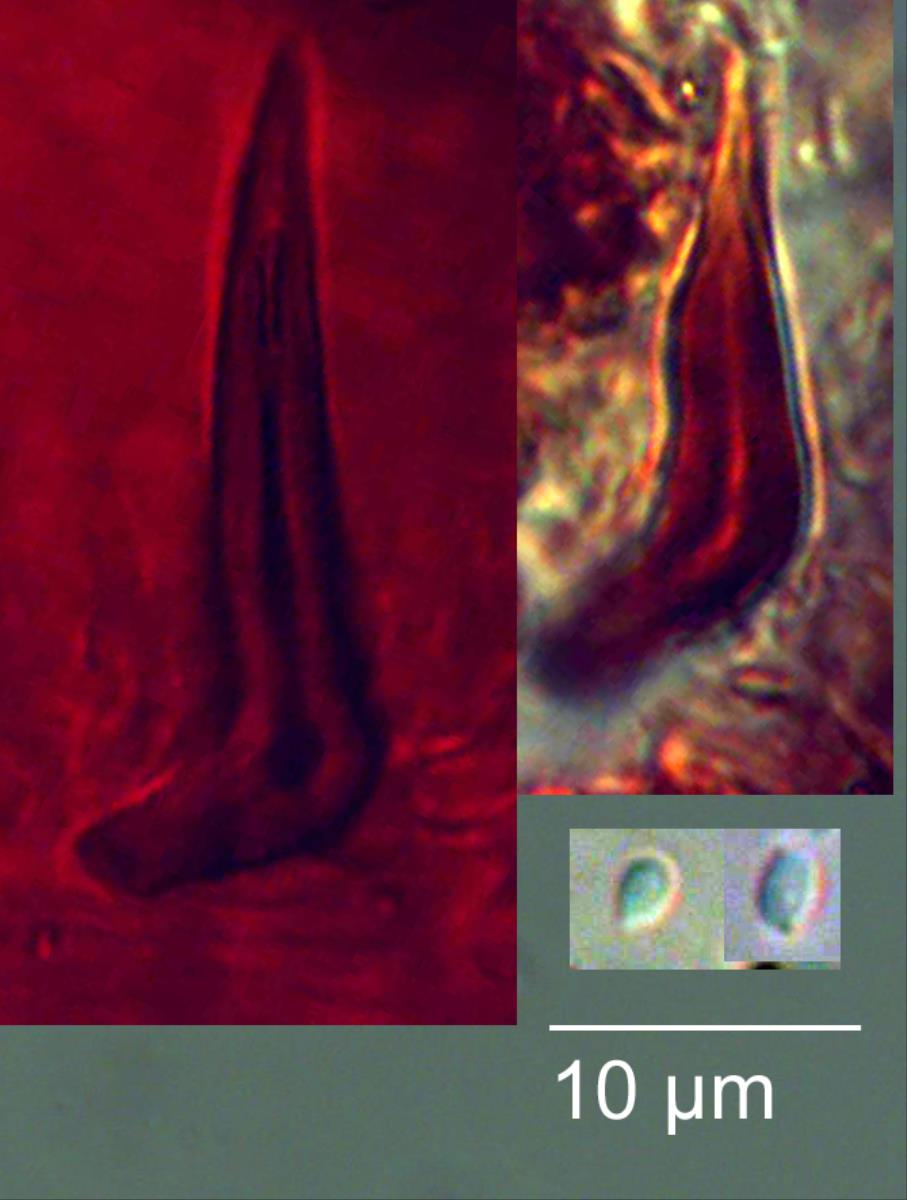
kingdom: Fungi
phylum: Basidiomycota
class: Agaricomycetes
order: Hymenochaetales
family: Hymenochaetaceae
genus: Hymenochaete
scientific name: Hymenochaete microcycla
